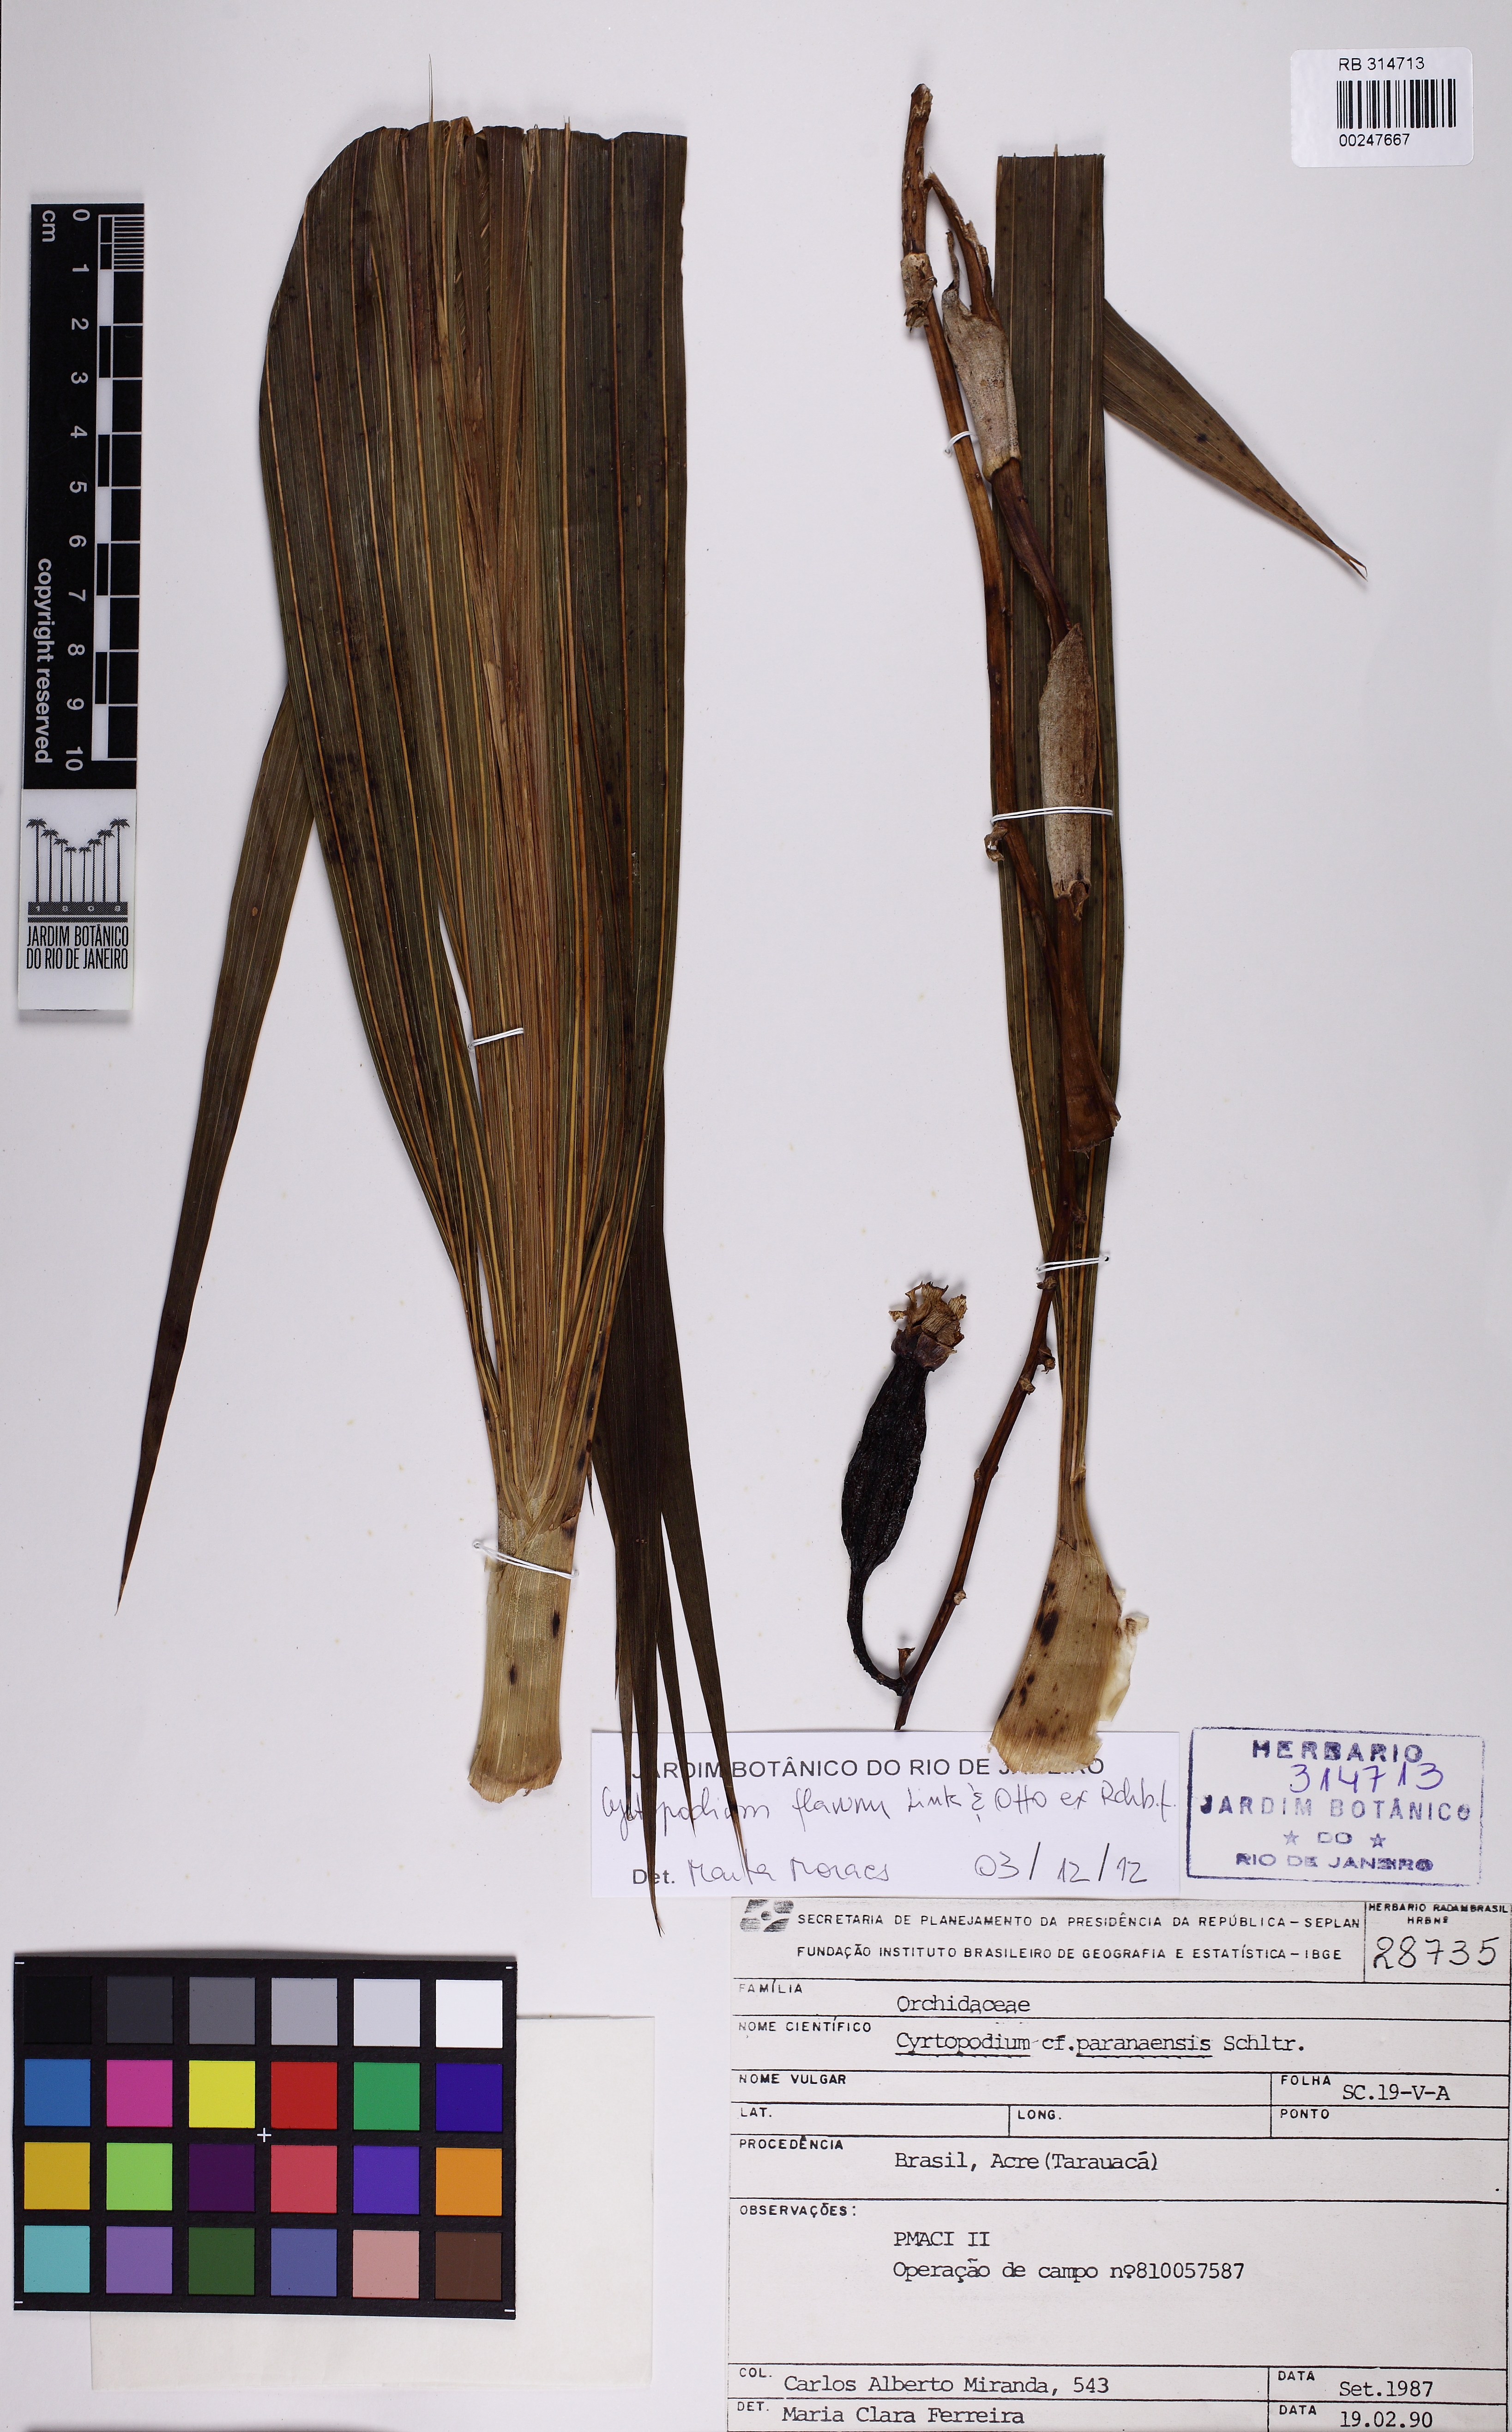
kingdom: Plantae
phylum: Tracheophyta
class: Liliopsida
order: Asparagales
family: Orchidaceae
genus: Cyrtopodium
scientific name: Cyrtopodium flavum
